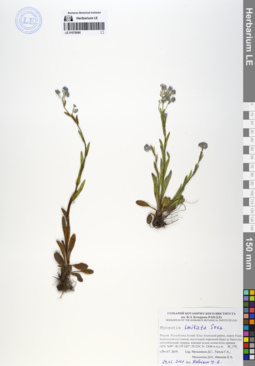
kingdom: Plantae
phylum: Tracheophyta
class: Magnoliopsida
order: Boraginales
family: Boraginaceae
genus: Myosotis
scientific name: Myosotis imitata
